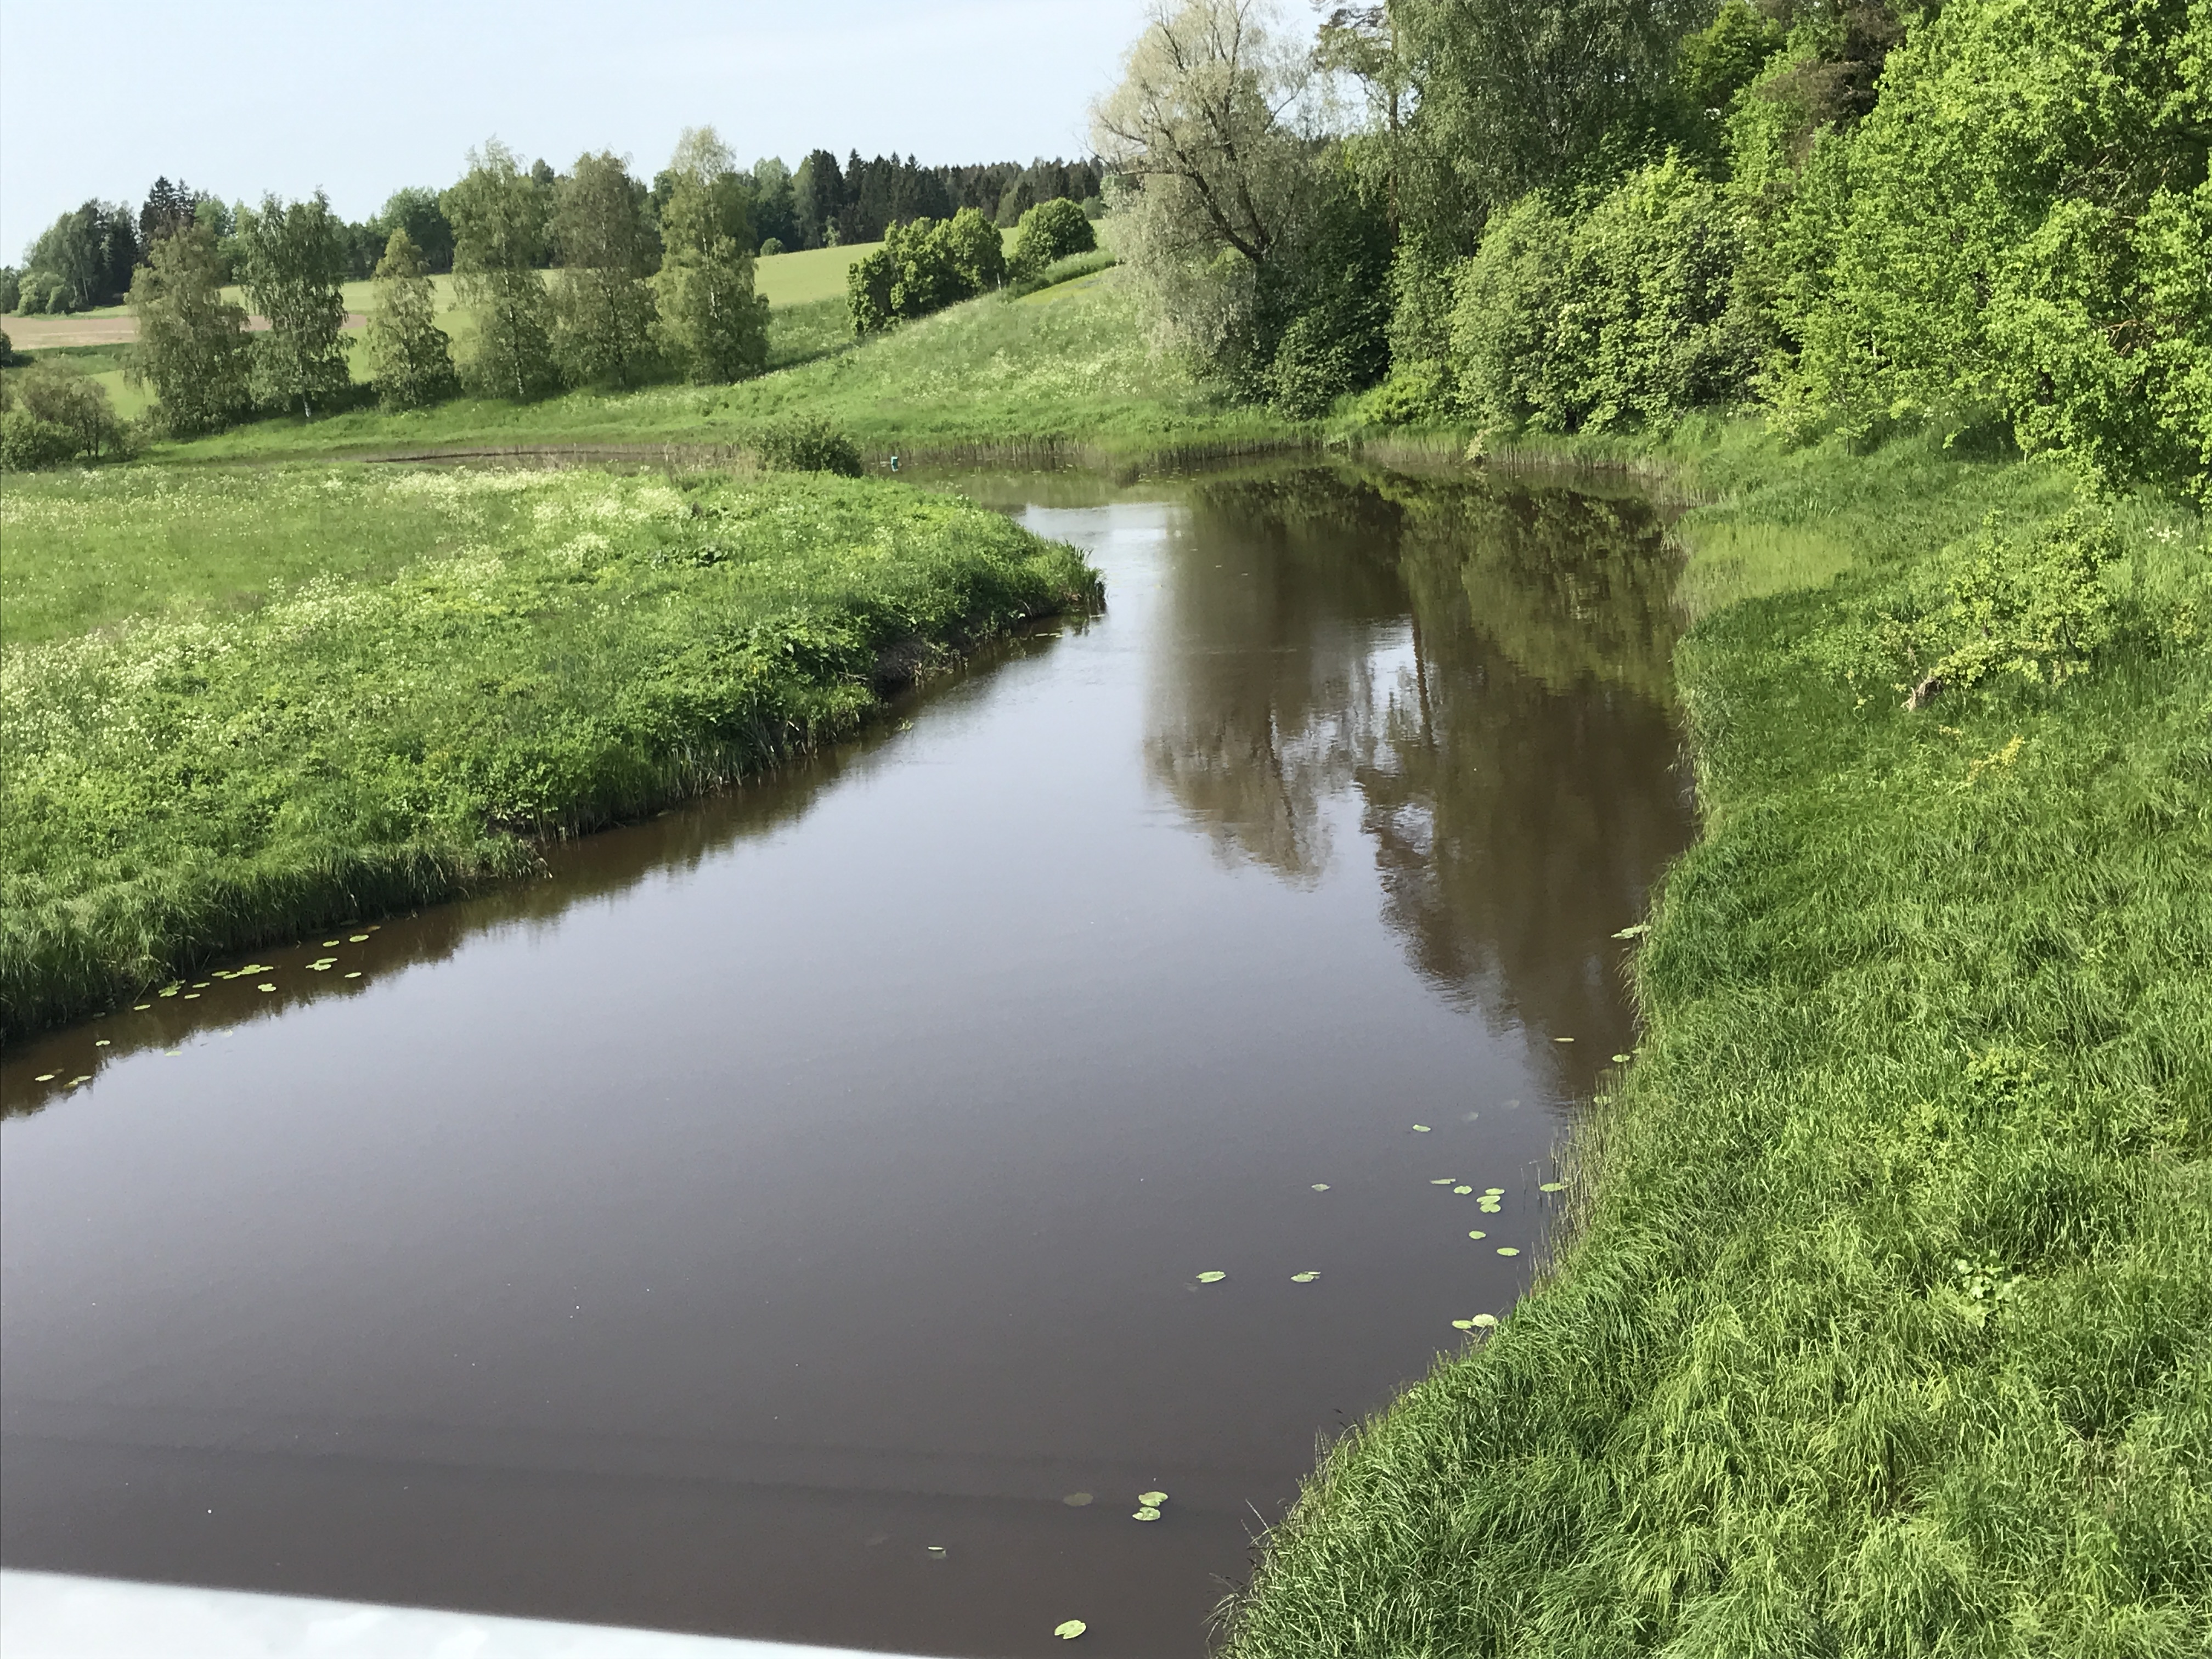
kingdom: Plantae
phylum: Tracheophyta
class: Magnoliopsida
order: Ericales
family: Balsaminaceae
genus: Impatiens
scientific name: Impatiens glandulifera
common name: Himalayan balsam
